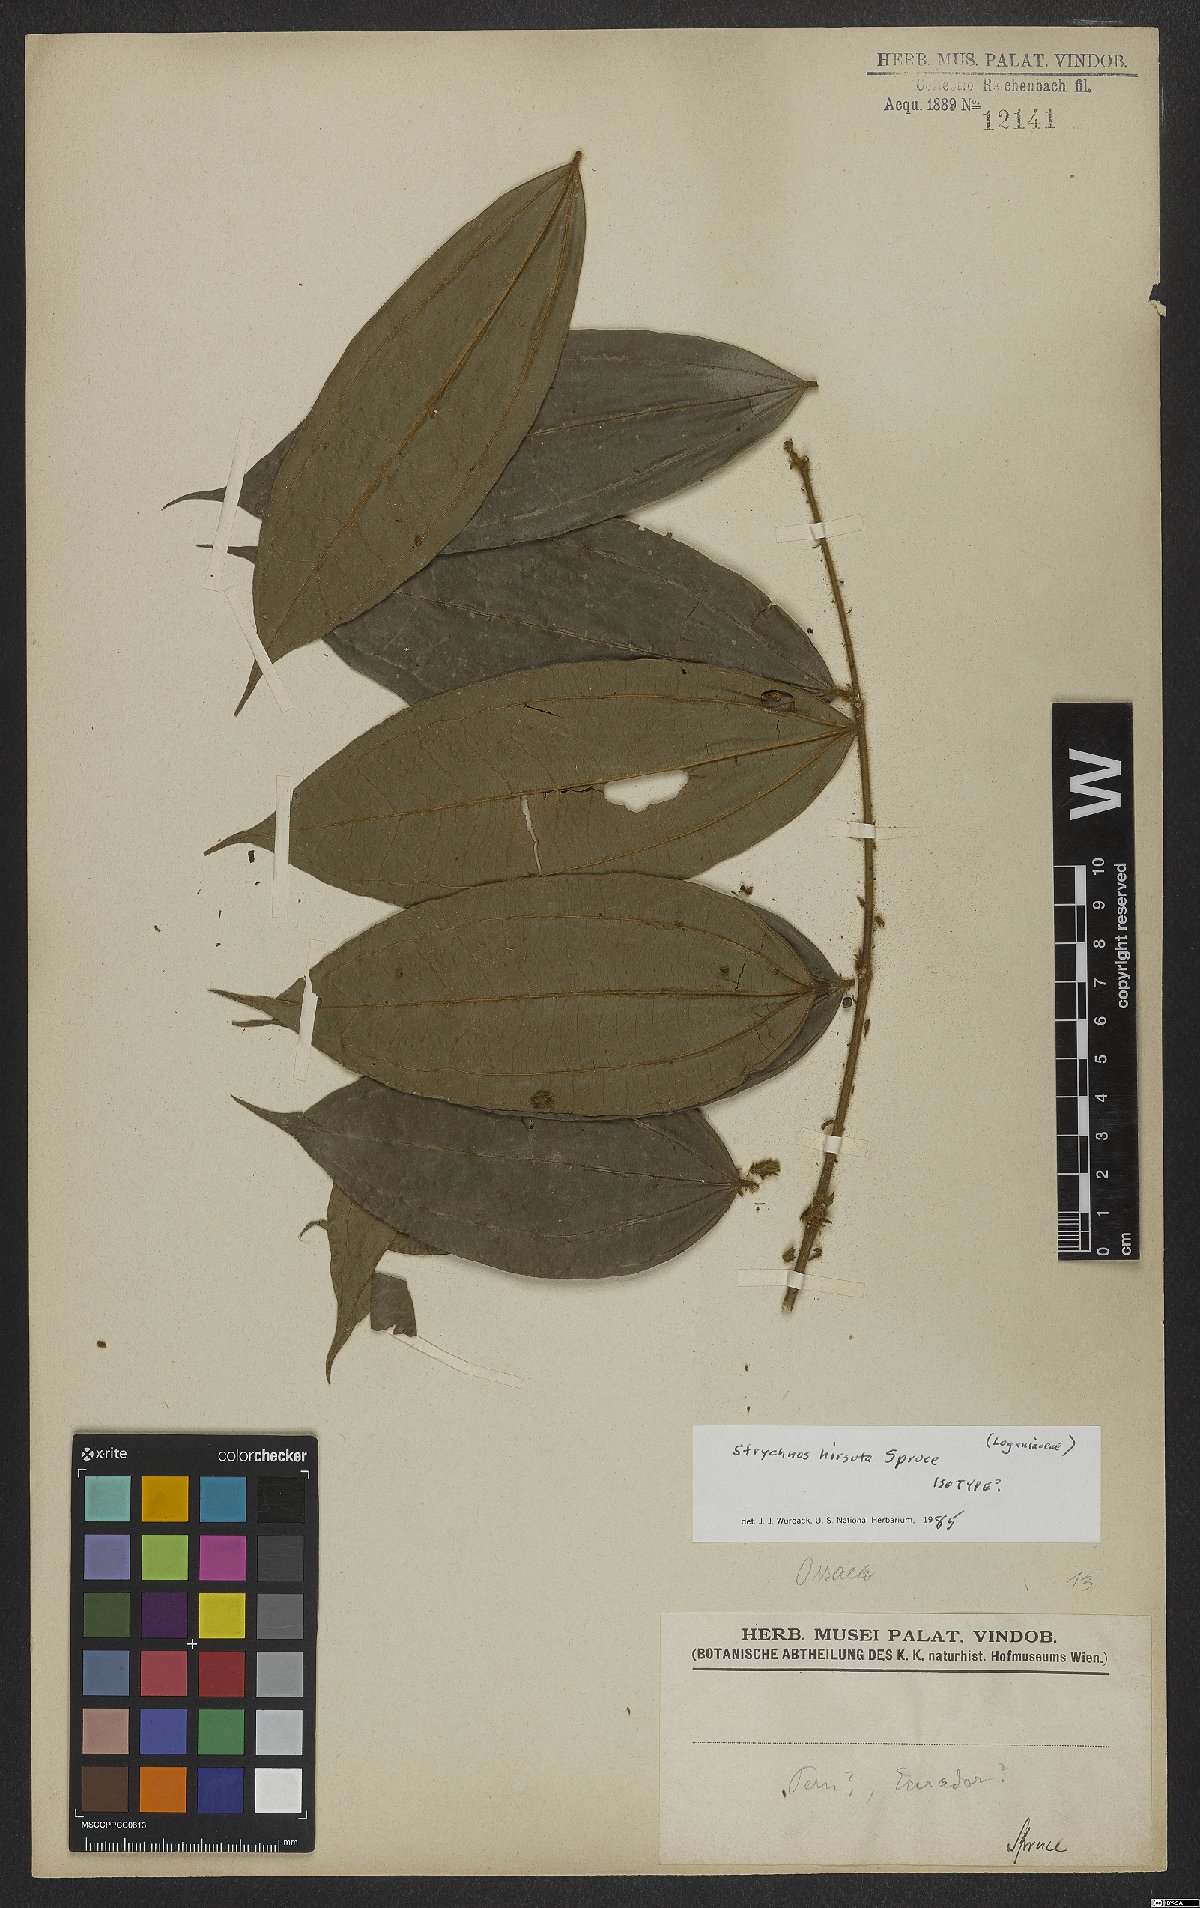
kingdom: Plantae
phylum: Tracheophyta
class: Magnoliopsida
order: Gentianales
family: Loganiaceae
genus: Strychnos
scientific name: Strychnos hirsuta
